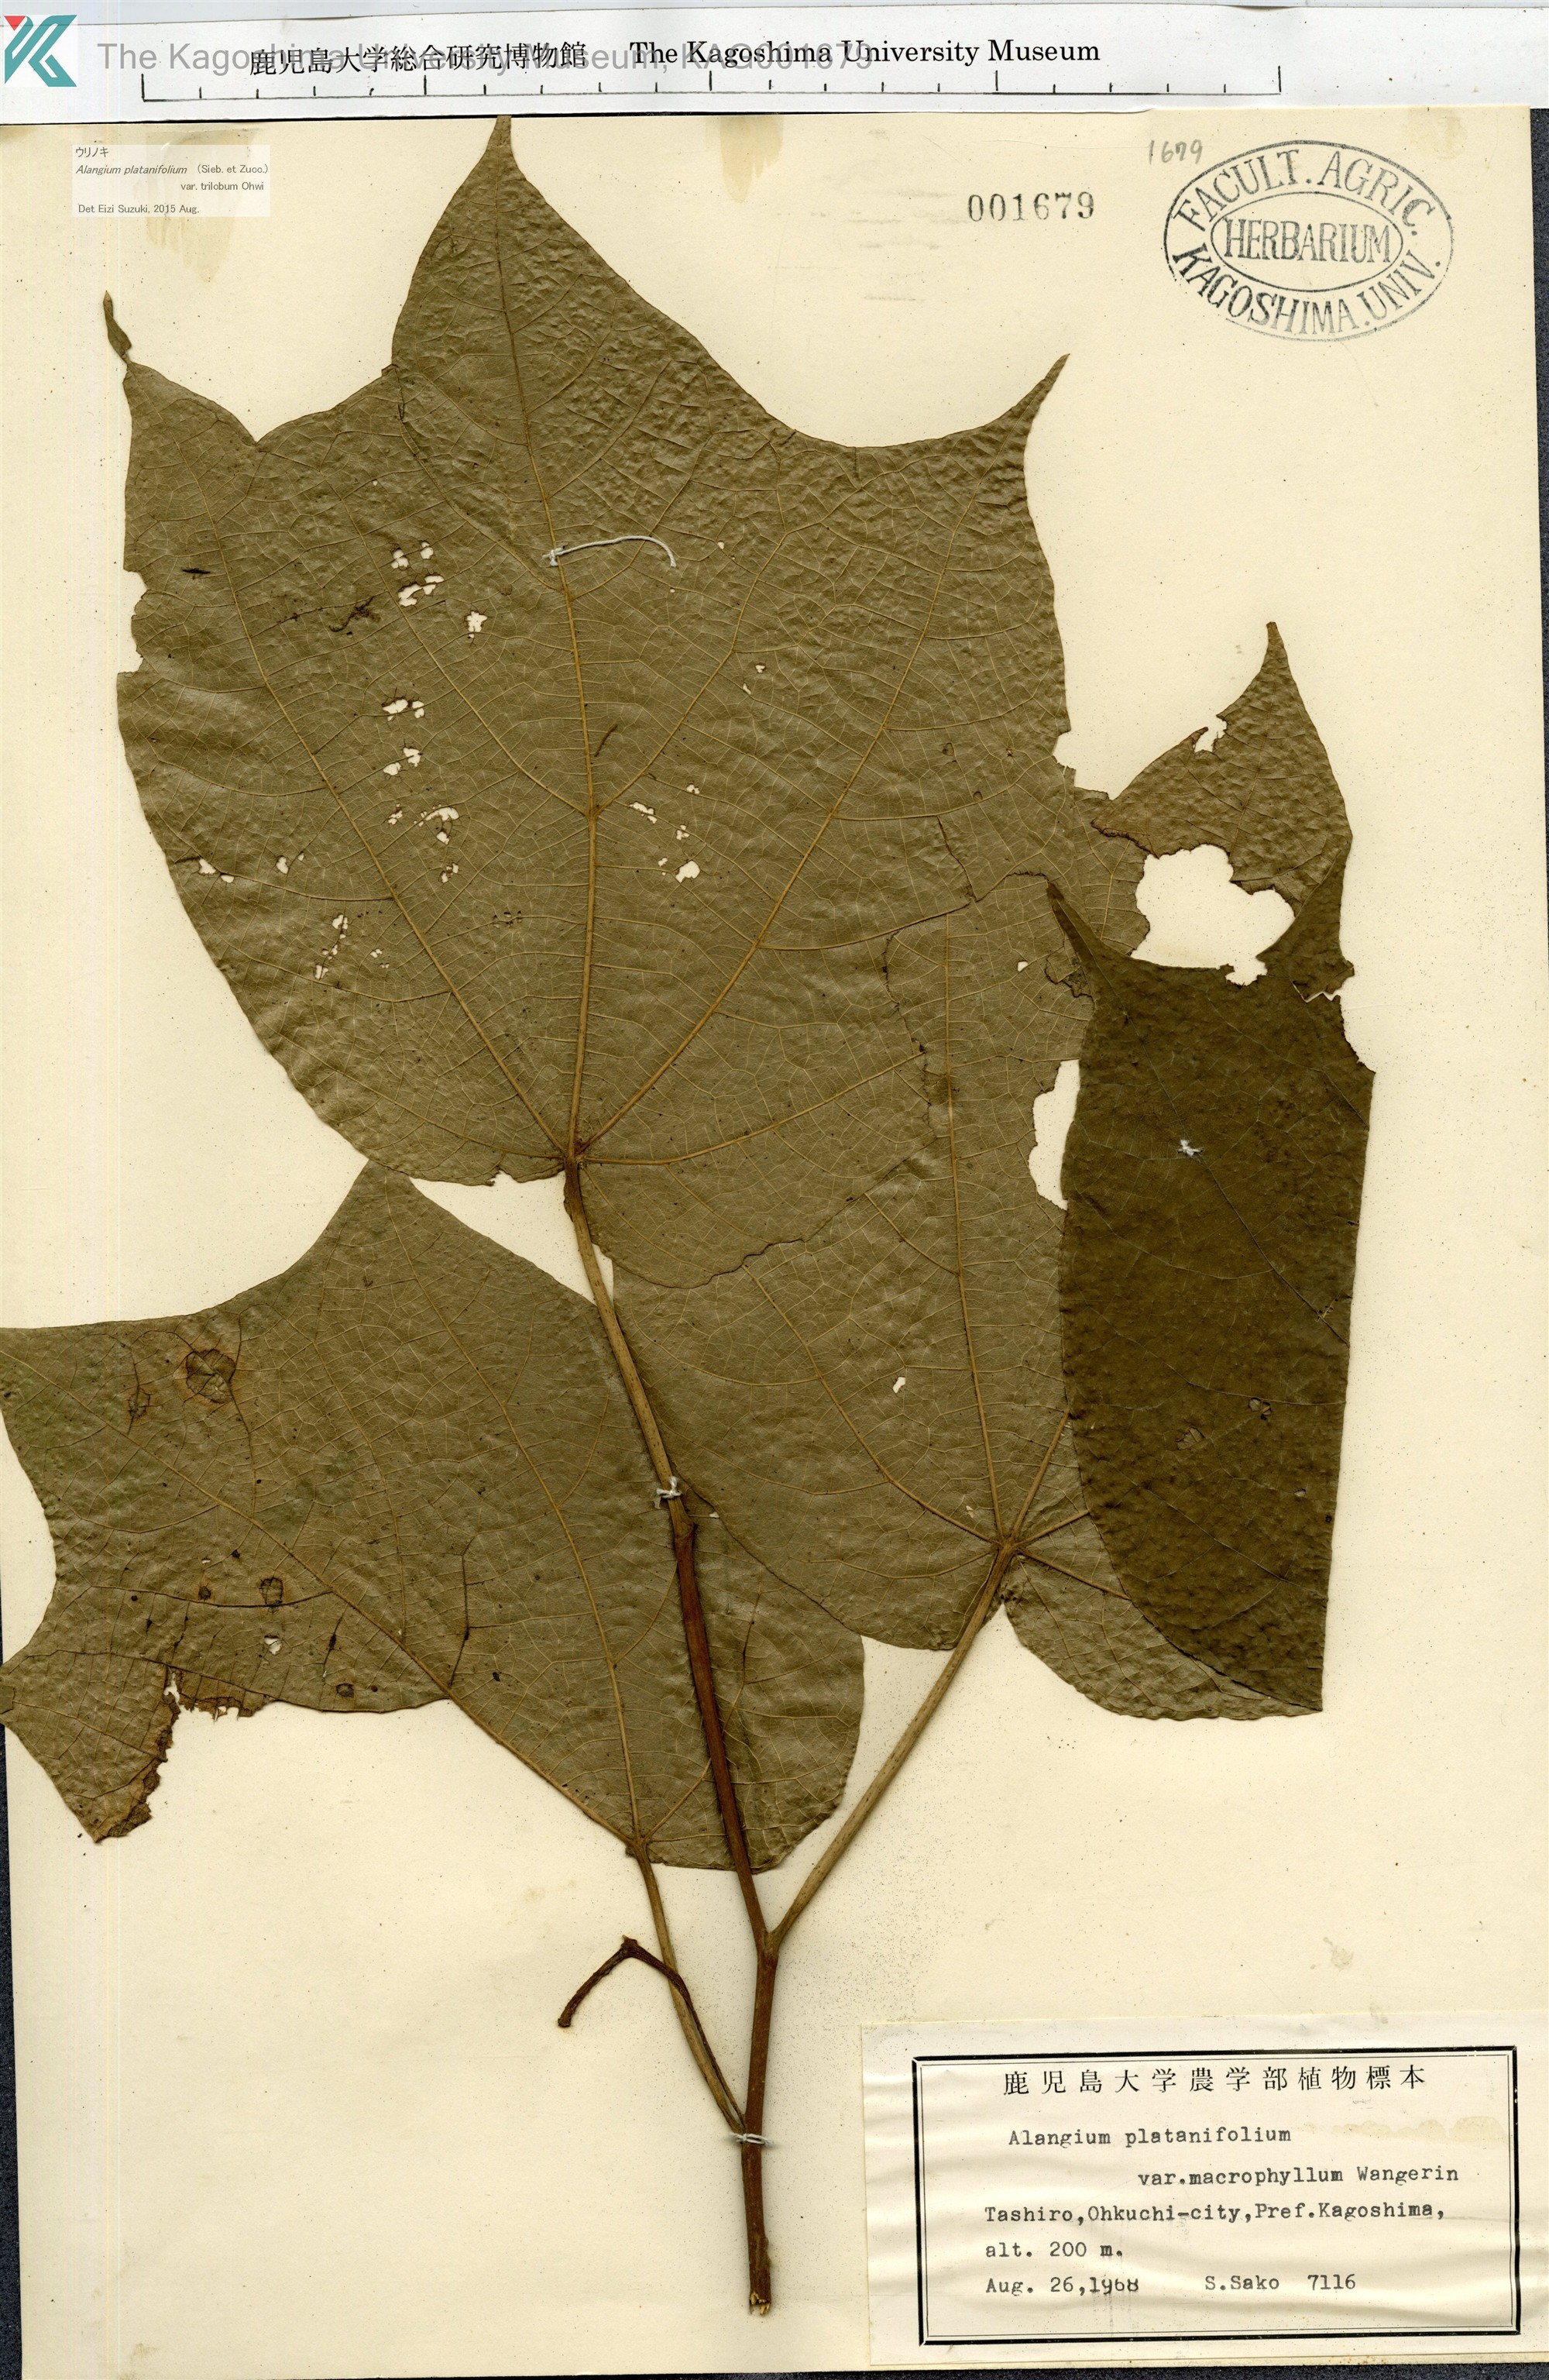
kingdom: Plantae
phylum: Tracheophyta
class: Magnoliopsida
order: Cornales
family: Cornaceae
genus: Alangium
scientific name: Alangium platanifolium
